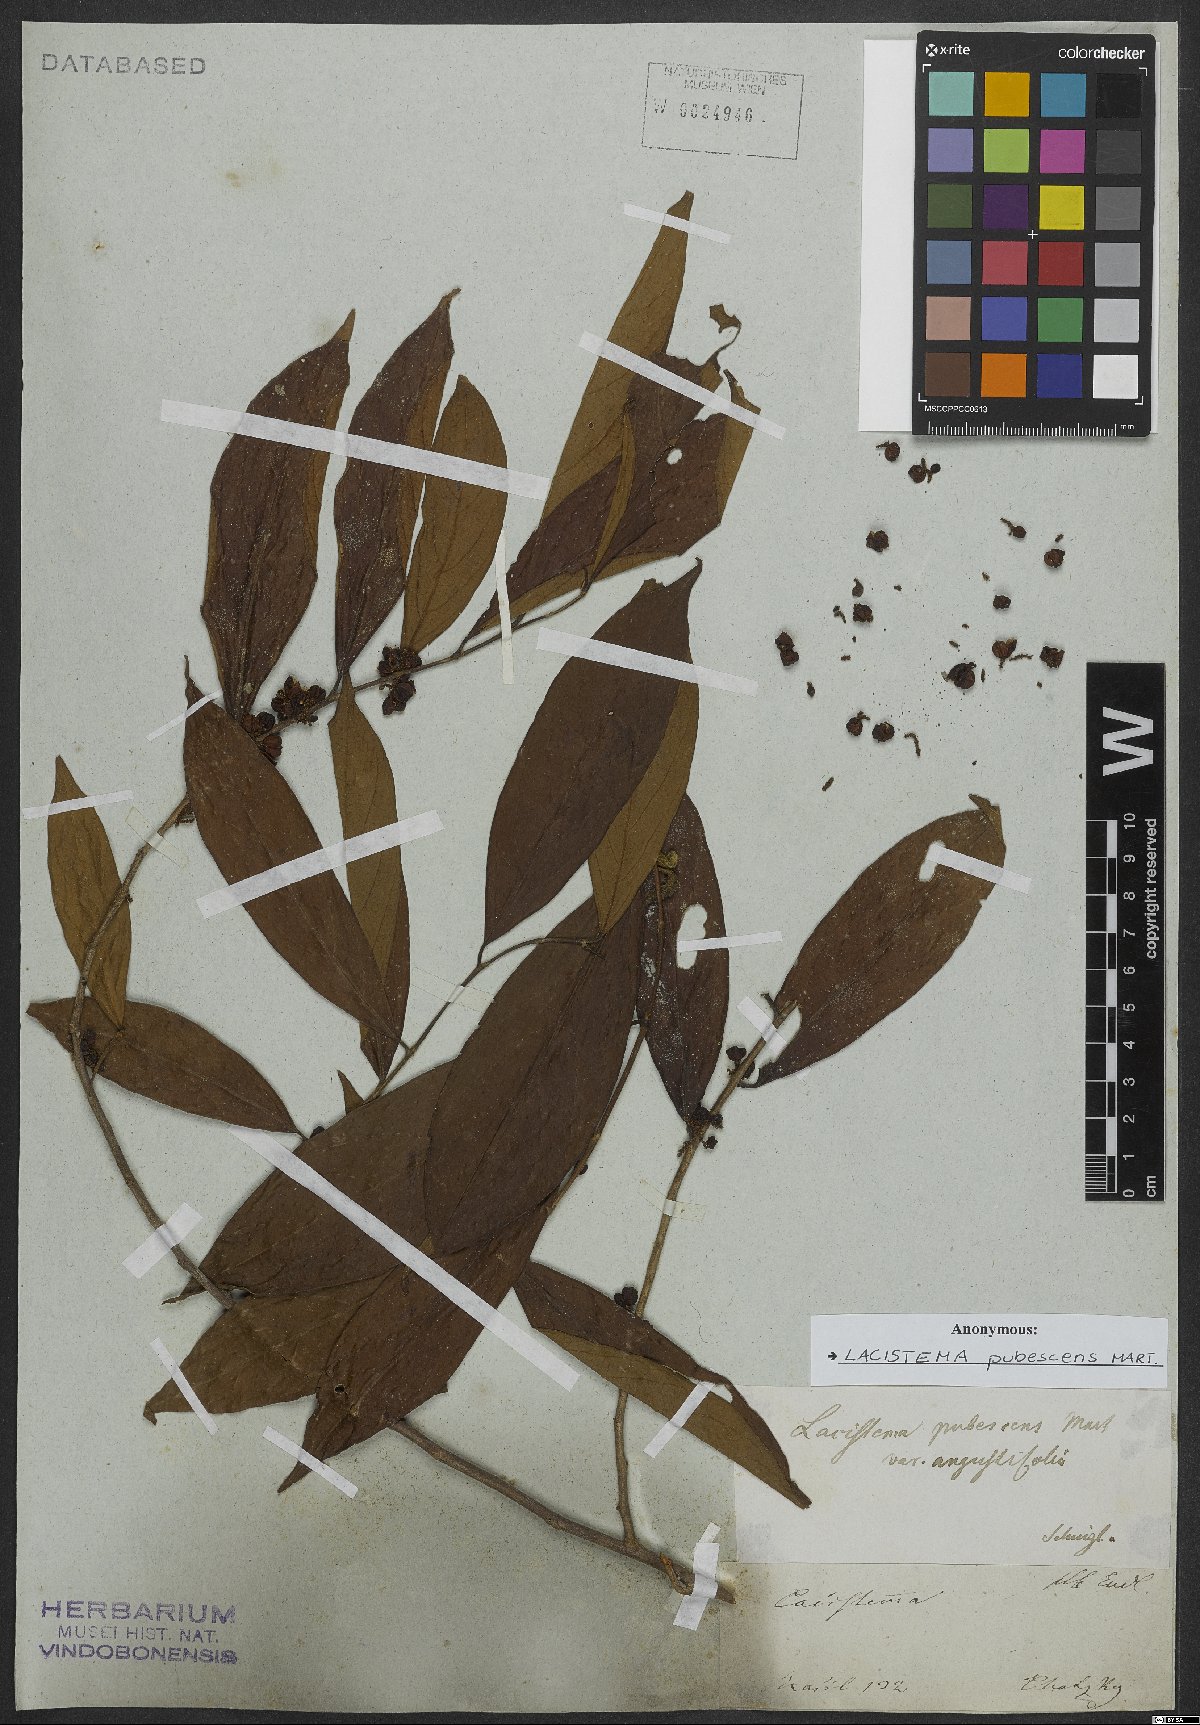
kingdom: Plantae
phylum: Tracheophyta
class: Magnoliopsida
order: Malpighiales
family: Lacistemataceae
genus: Lacistema
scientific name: Lacistema pubescens
